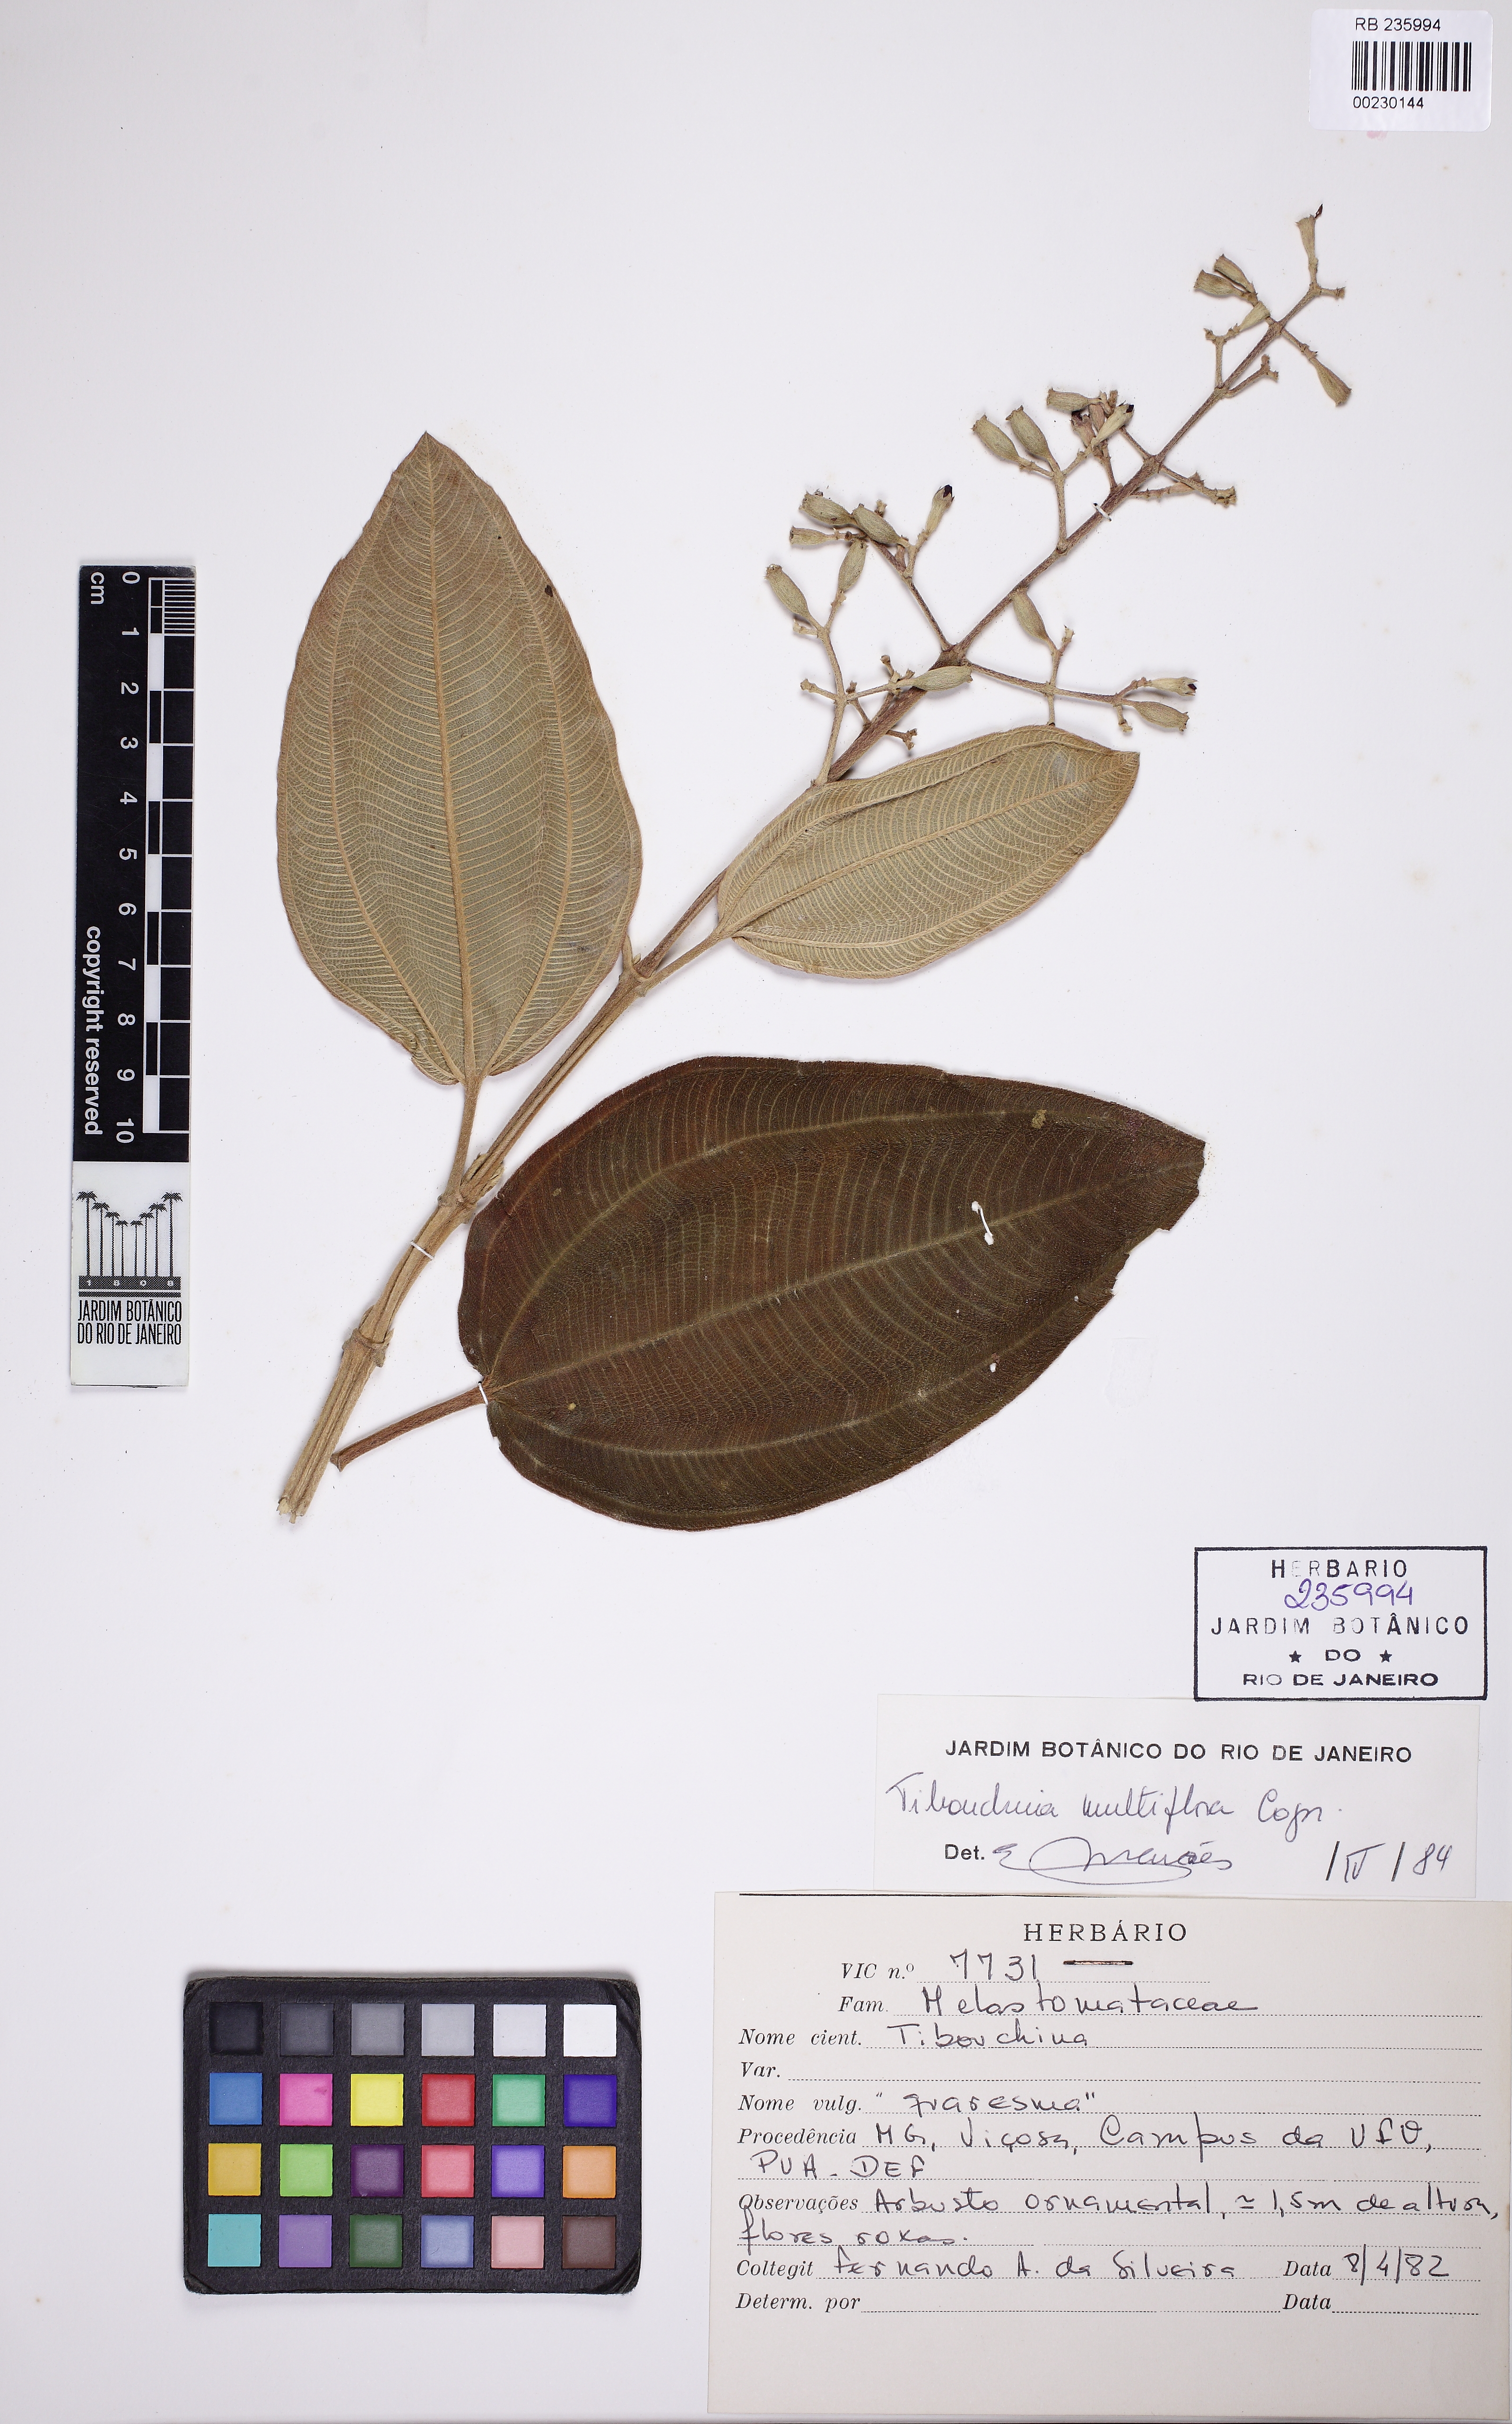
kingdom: Plantae
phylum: Tracheophyta
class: Magnoliopsida
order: Myrtales
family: Melastomataceae
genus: Chaetogastra
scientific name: Chaetogastra geitneriana
